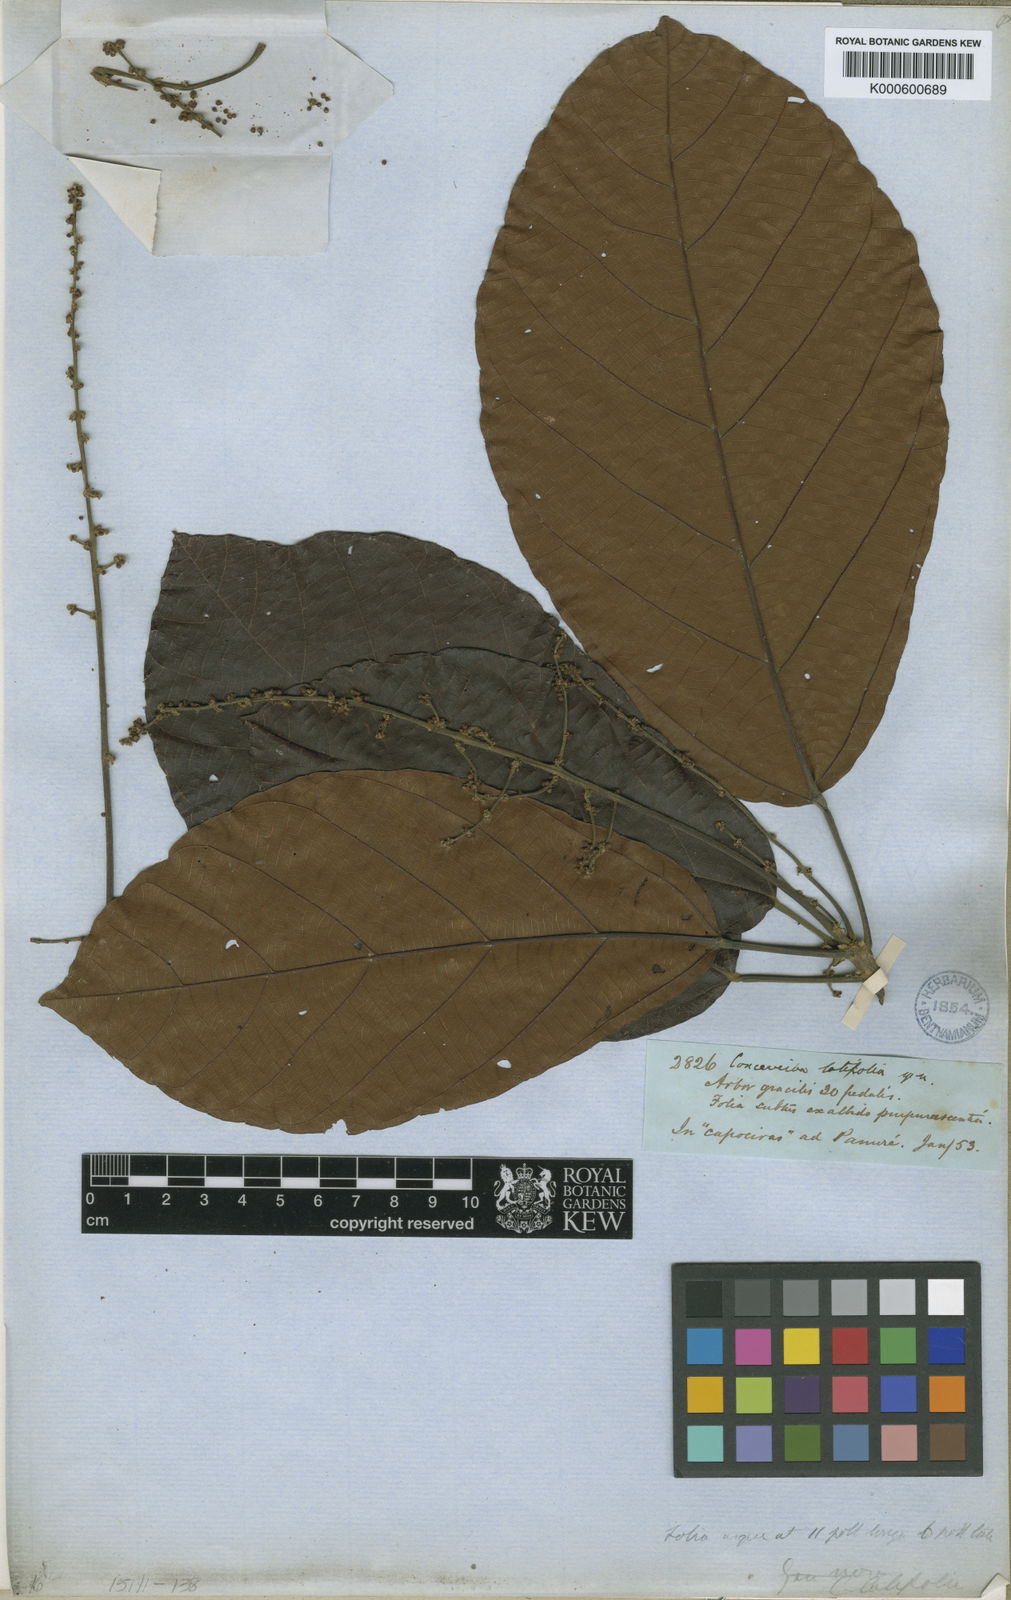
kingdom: Plantae
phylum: Tracheophyta
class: Magnoliopsida
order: Malpighiales
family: Euphorbiaceae
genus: Conceveiba
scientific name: Conceveiba latifolia
